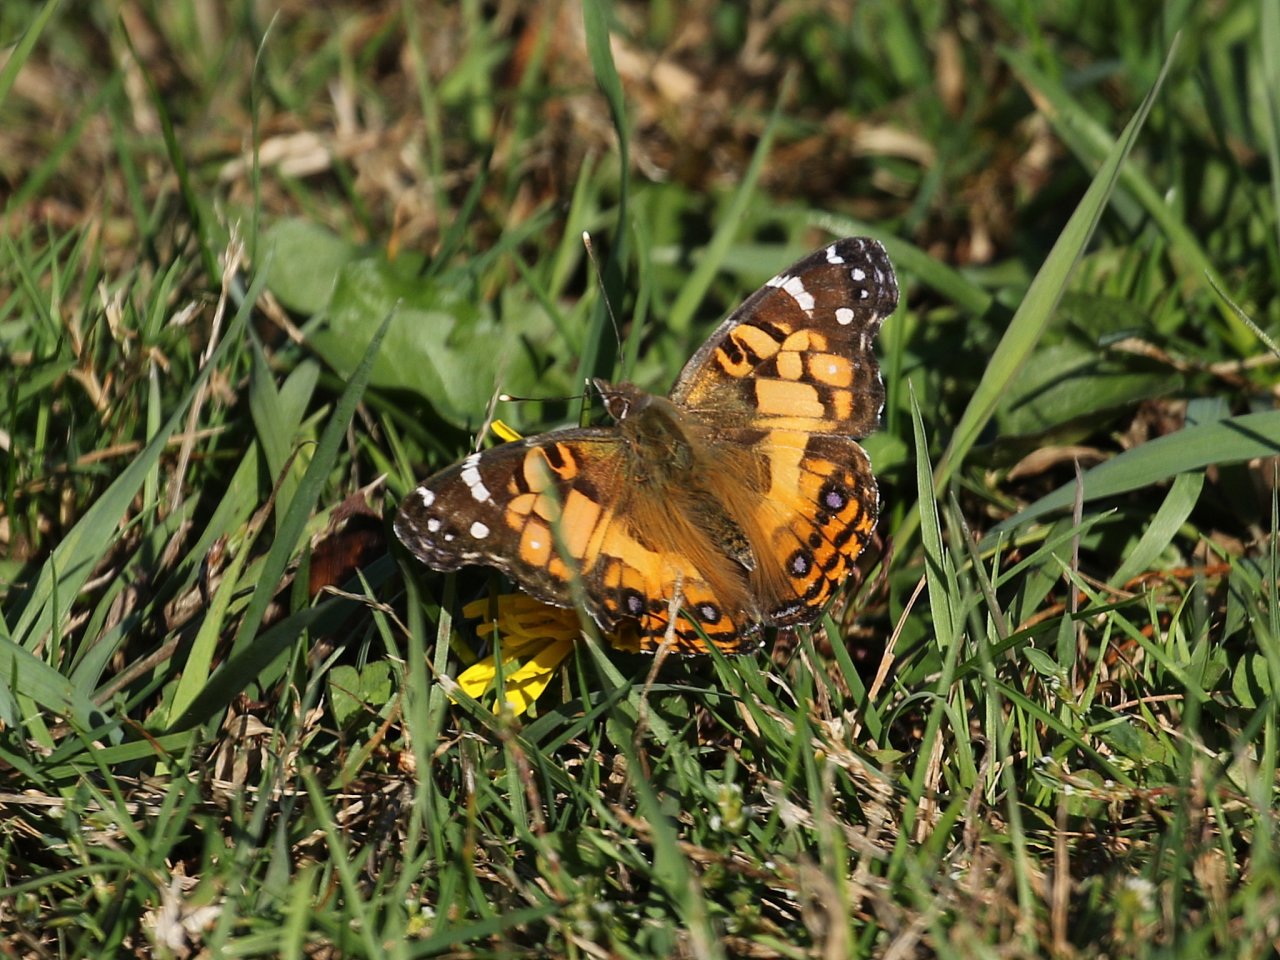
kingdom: Animalia
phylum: Arthropoda
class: Insecta
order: Lepidoptera
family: Nymphalidae
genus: Vanessa
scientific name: Vanessa virginiensis
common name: American Lady
